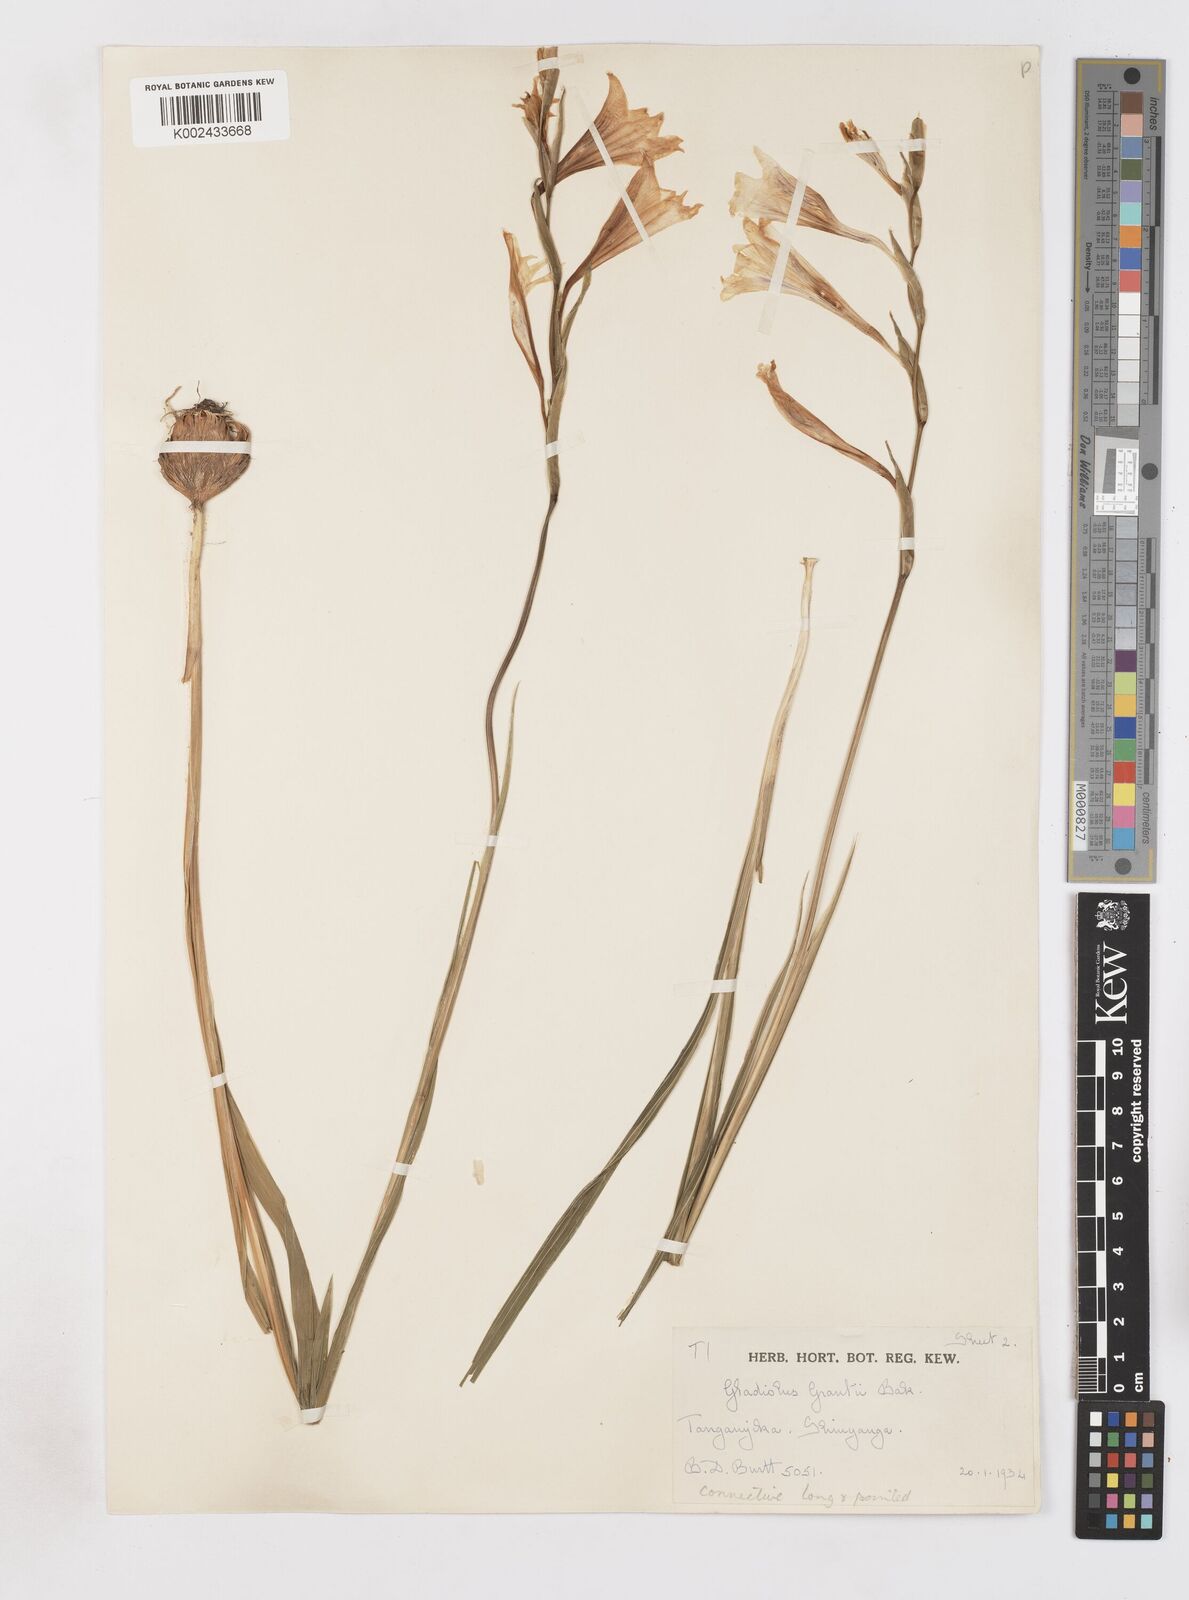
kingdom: Plantae
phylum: Tracheophyta
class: Liliopsida
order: Asparagales
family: Iridaceae
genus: Gladiolus
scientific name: Gladiolus grantii
